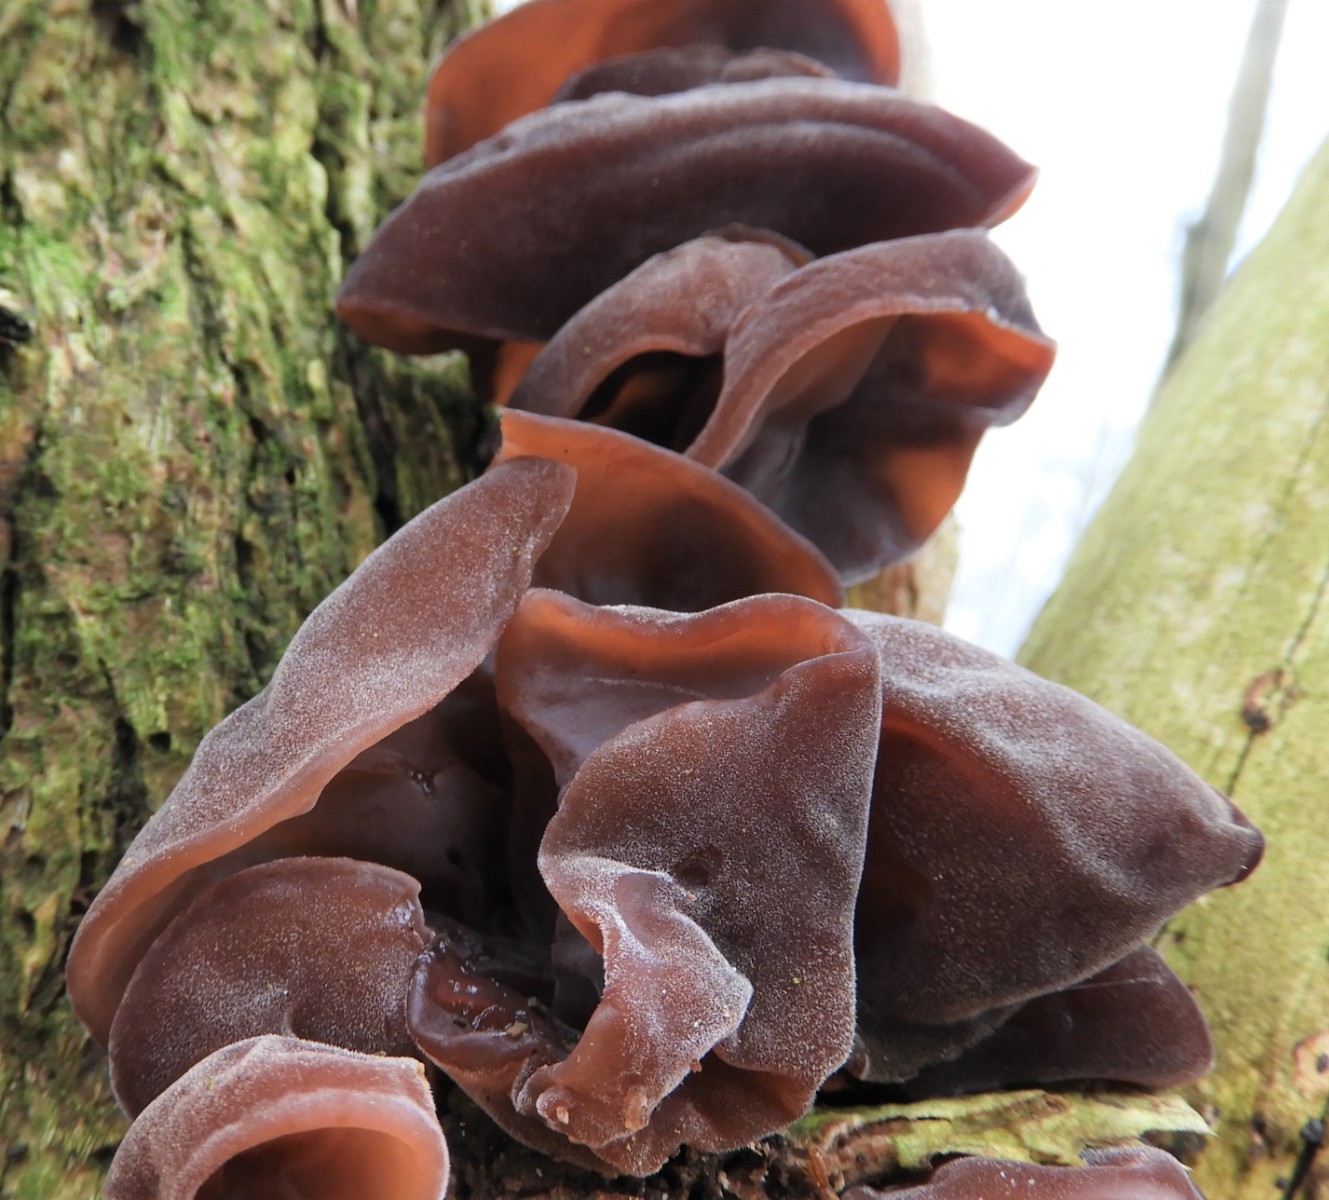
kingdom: Fungi
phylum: Basidiomycota
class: Agaricomycetes
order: Auriculariales
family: Auriculariaceae
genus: Auricularia
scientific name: Auricularia auricula-judae
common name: almindelig judasøre
